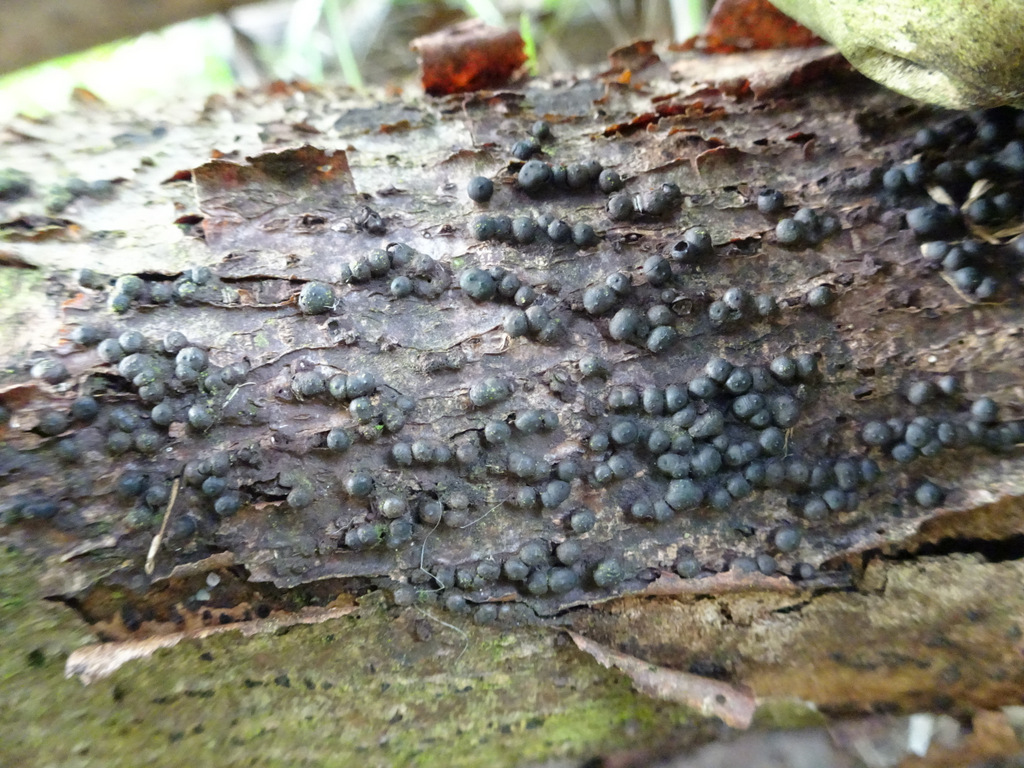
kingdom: Fungi
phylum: Ascomycota
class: Sordariomycetes
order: Xylariales
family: Xylariaceae
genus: Rosellinia
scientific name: Rosellinia
